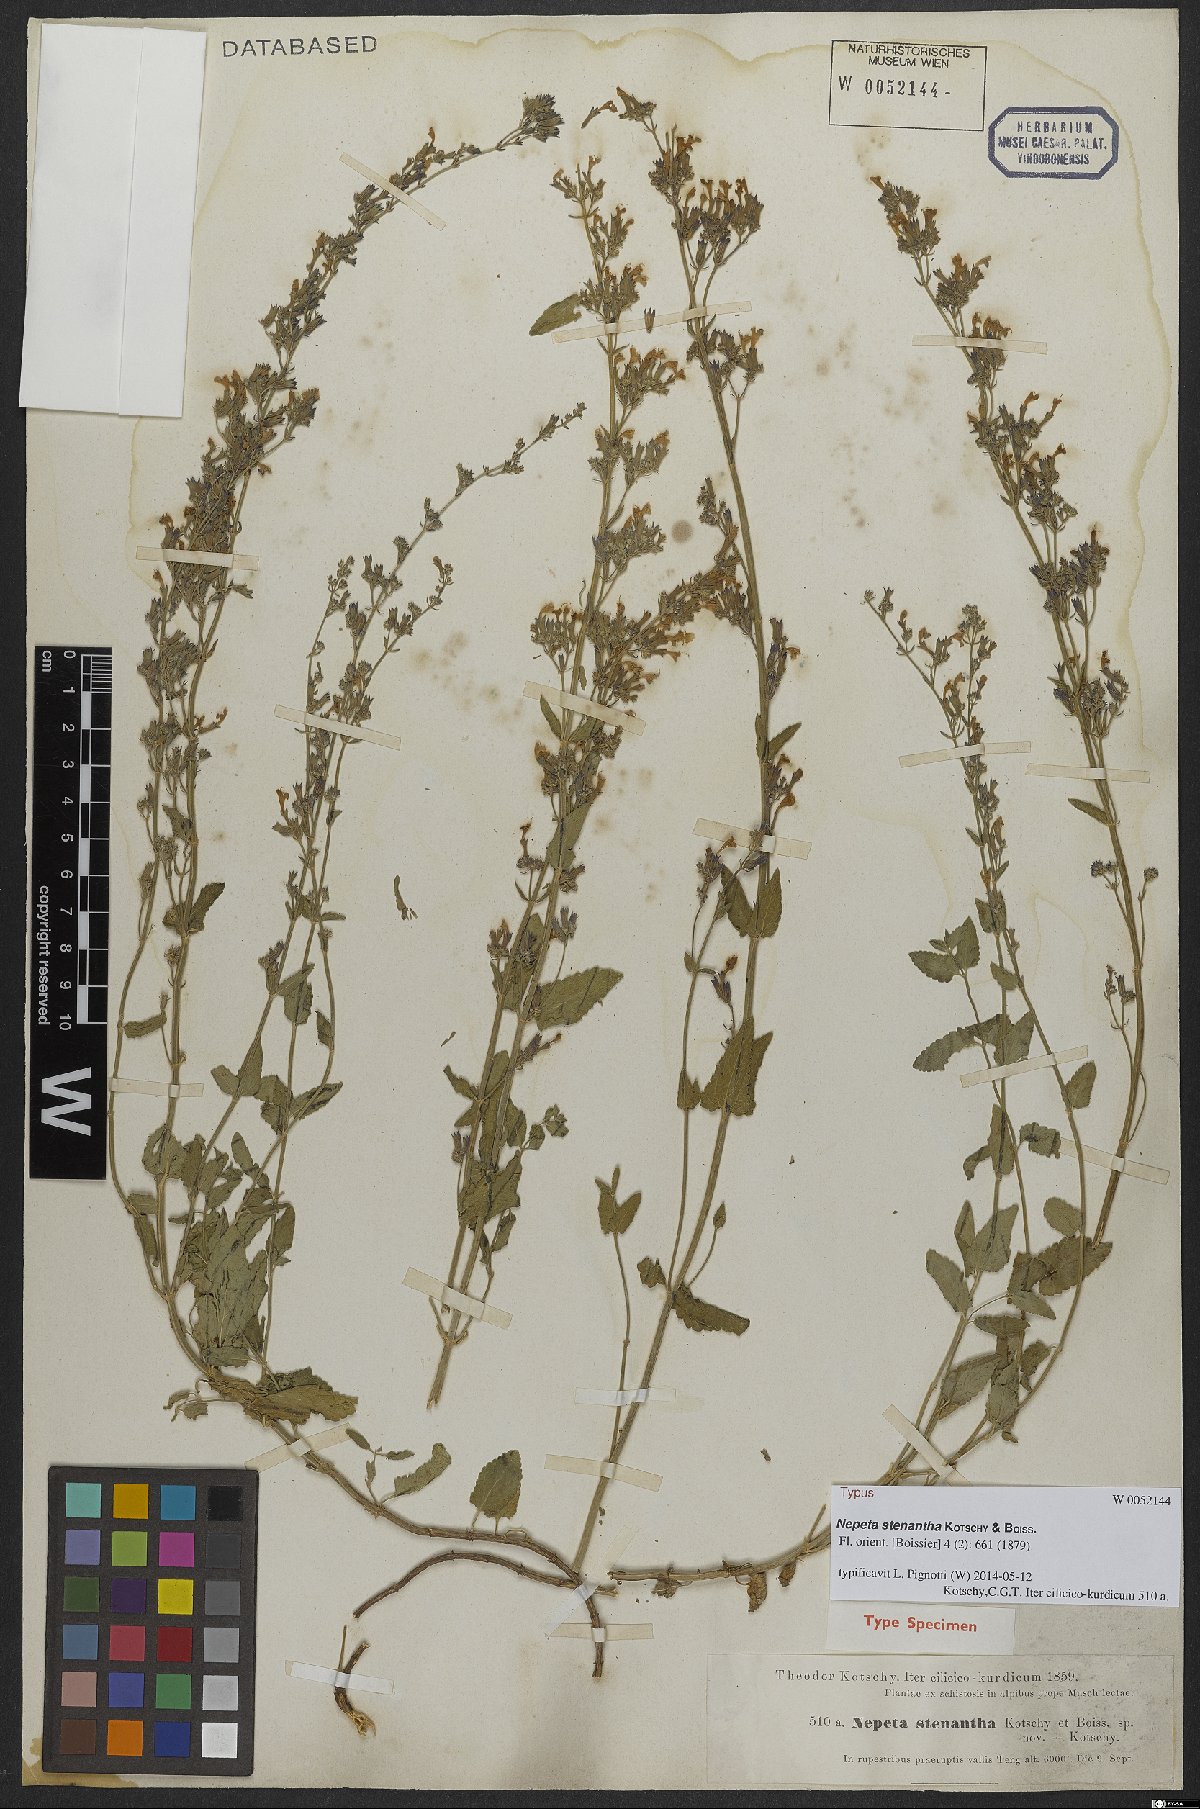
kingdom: Plantae
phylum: Tracheophyta
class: Magnoliopsida
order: Lamiales
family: Lamiaceae
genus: Nepeta
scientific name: Nepeta stenantha
